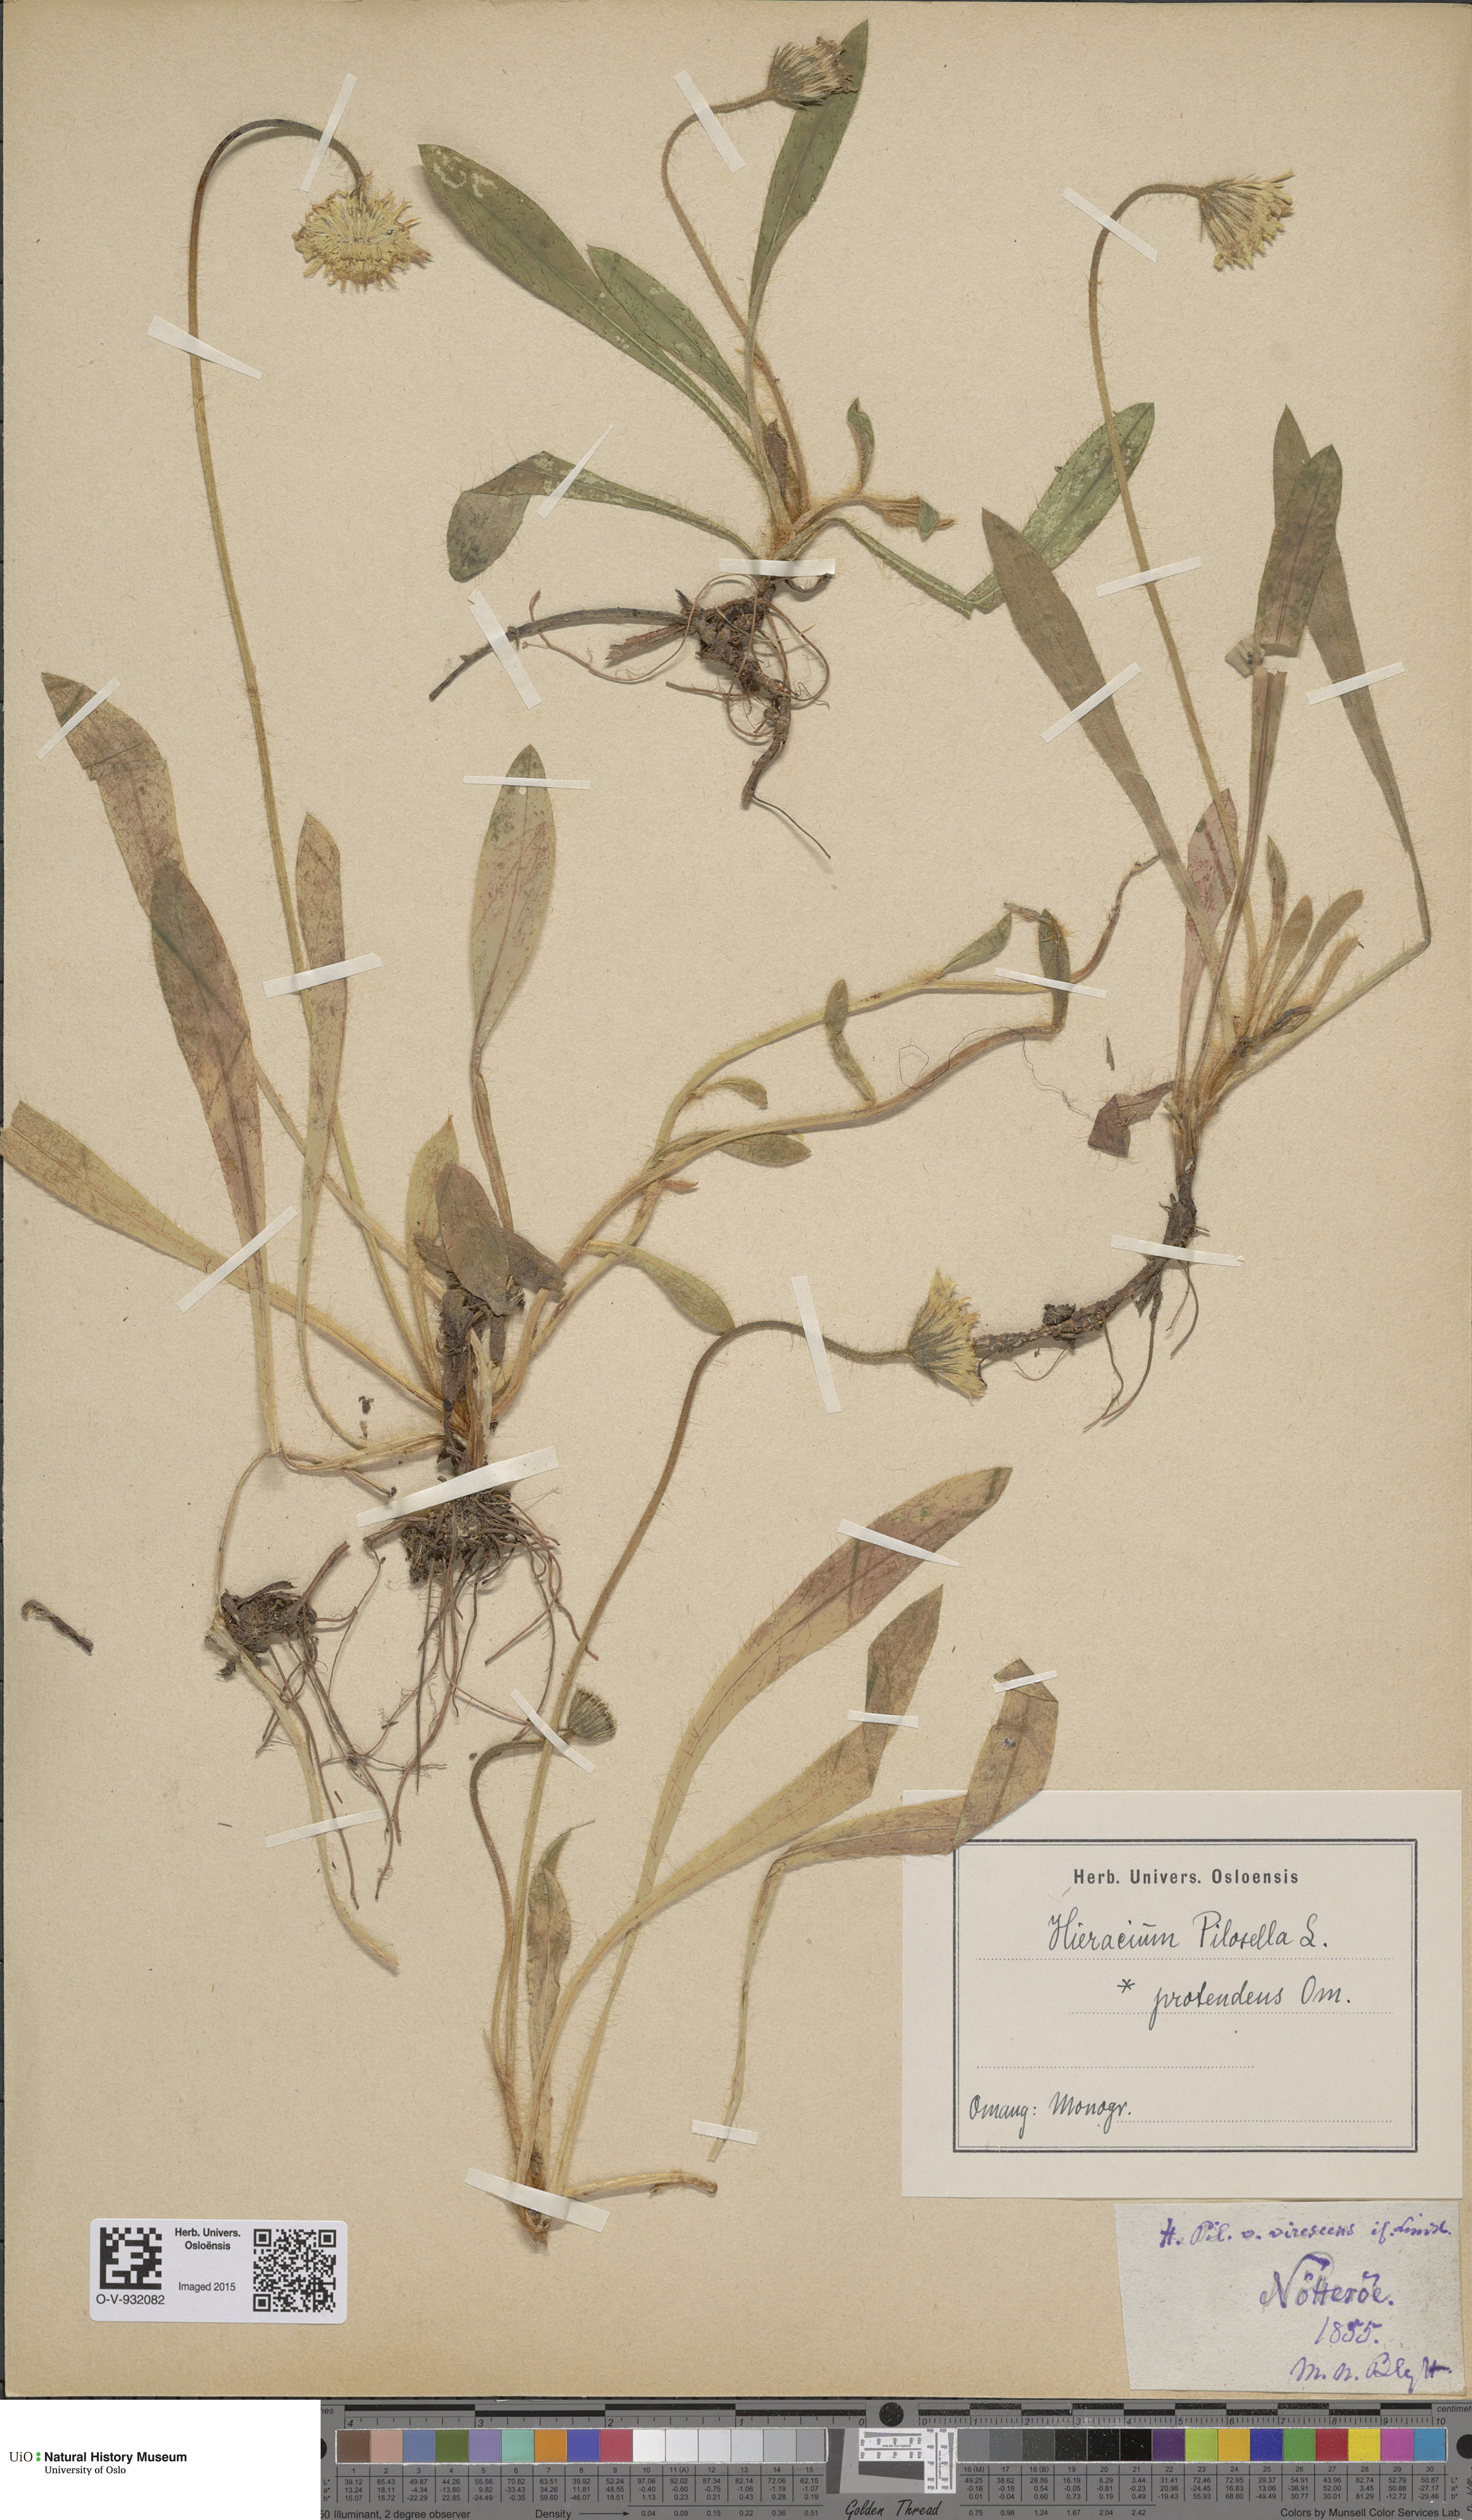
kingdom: Plantae
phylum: Tracheophyta
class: Magnoliopsida
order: Asterales
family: Asteraceae
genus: Pilosella
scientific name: Pilosella officinarum
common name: Mouse-ear hawkweed
